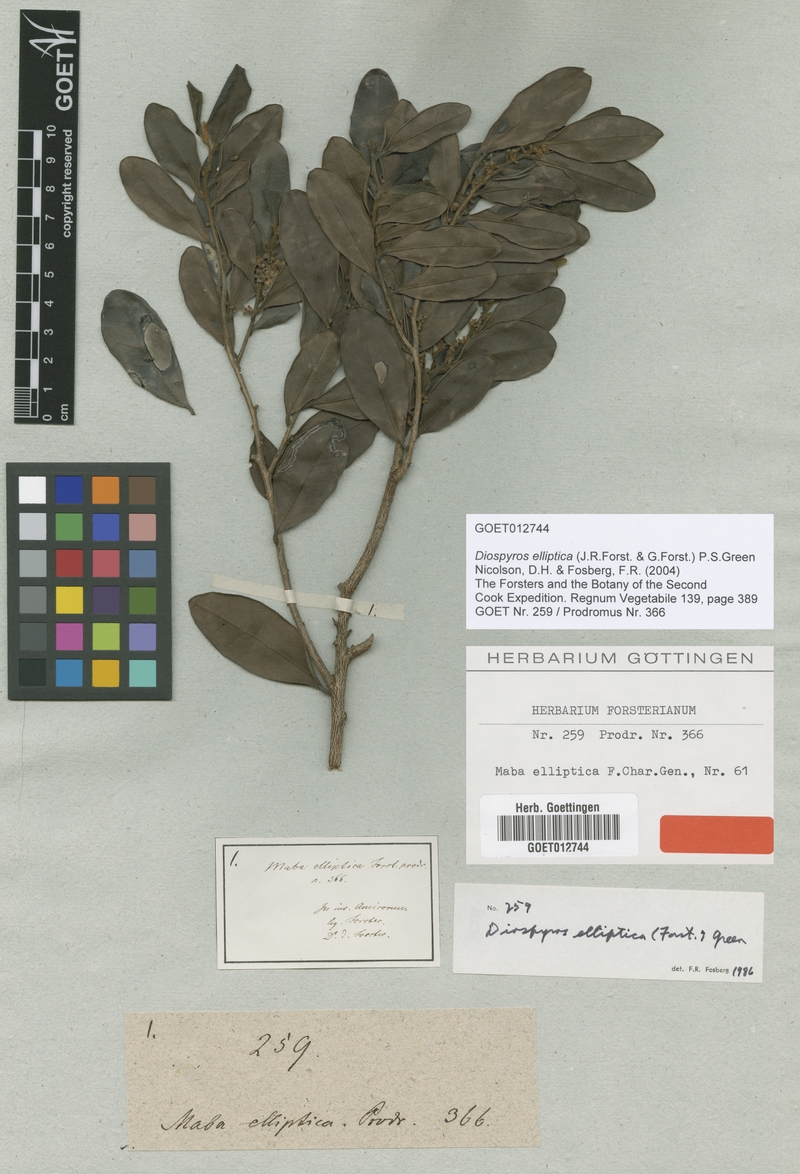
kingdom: Plantae
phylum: Tracheophyta
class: Magnoliopsida
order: Ericales
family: Ebenaceae
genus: Diospyros
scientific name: Diospyros foliosa
